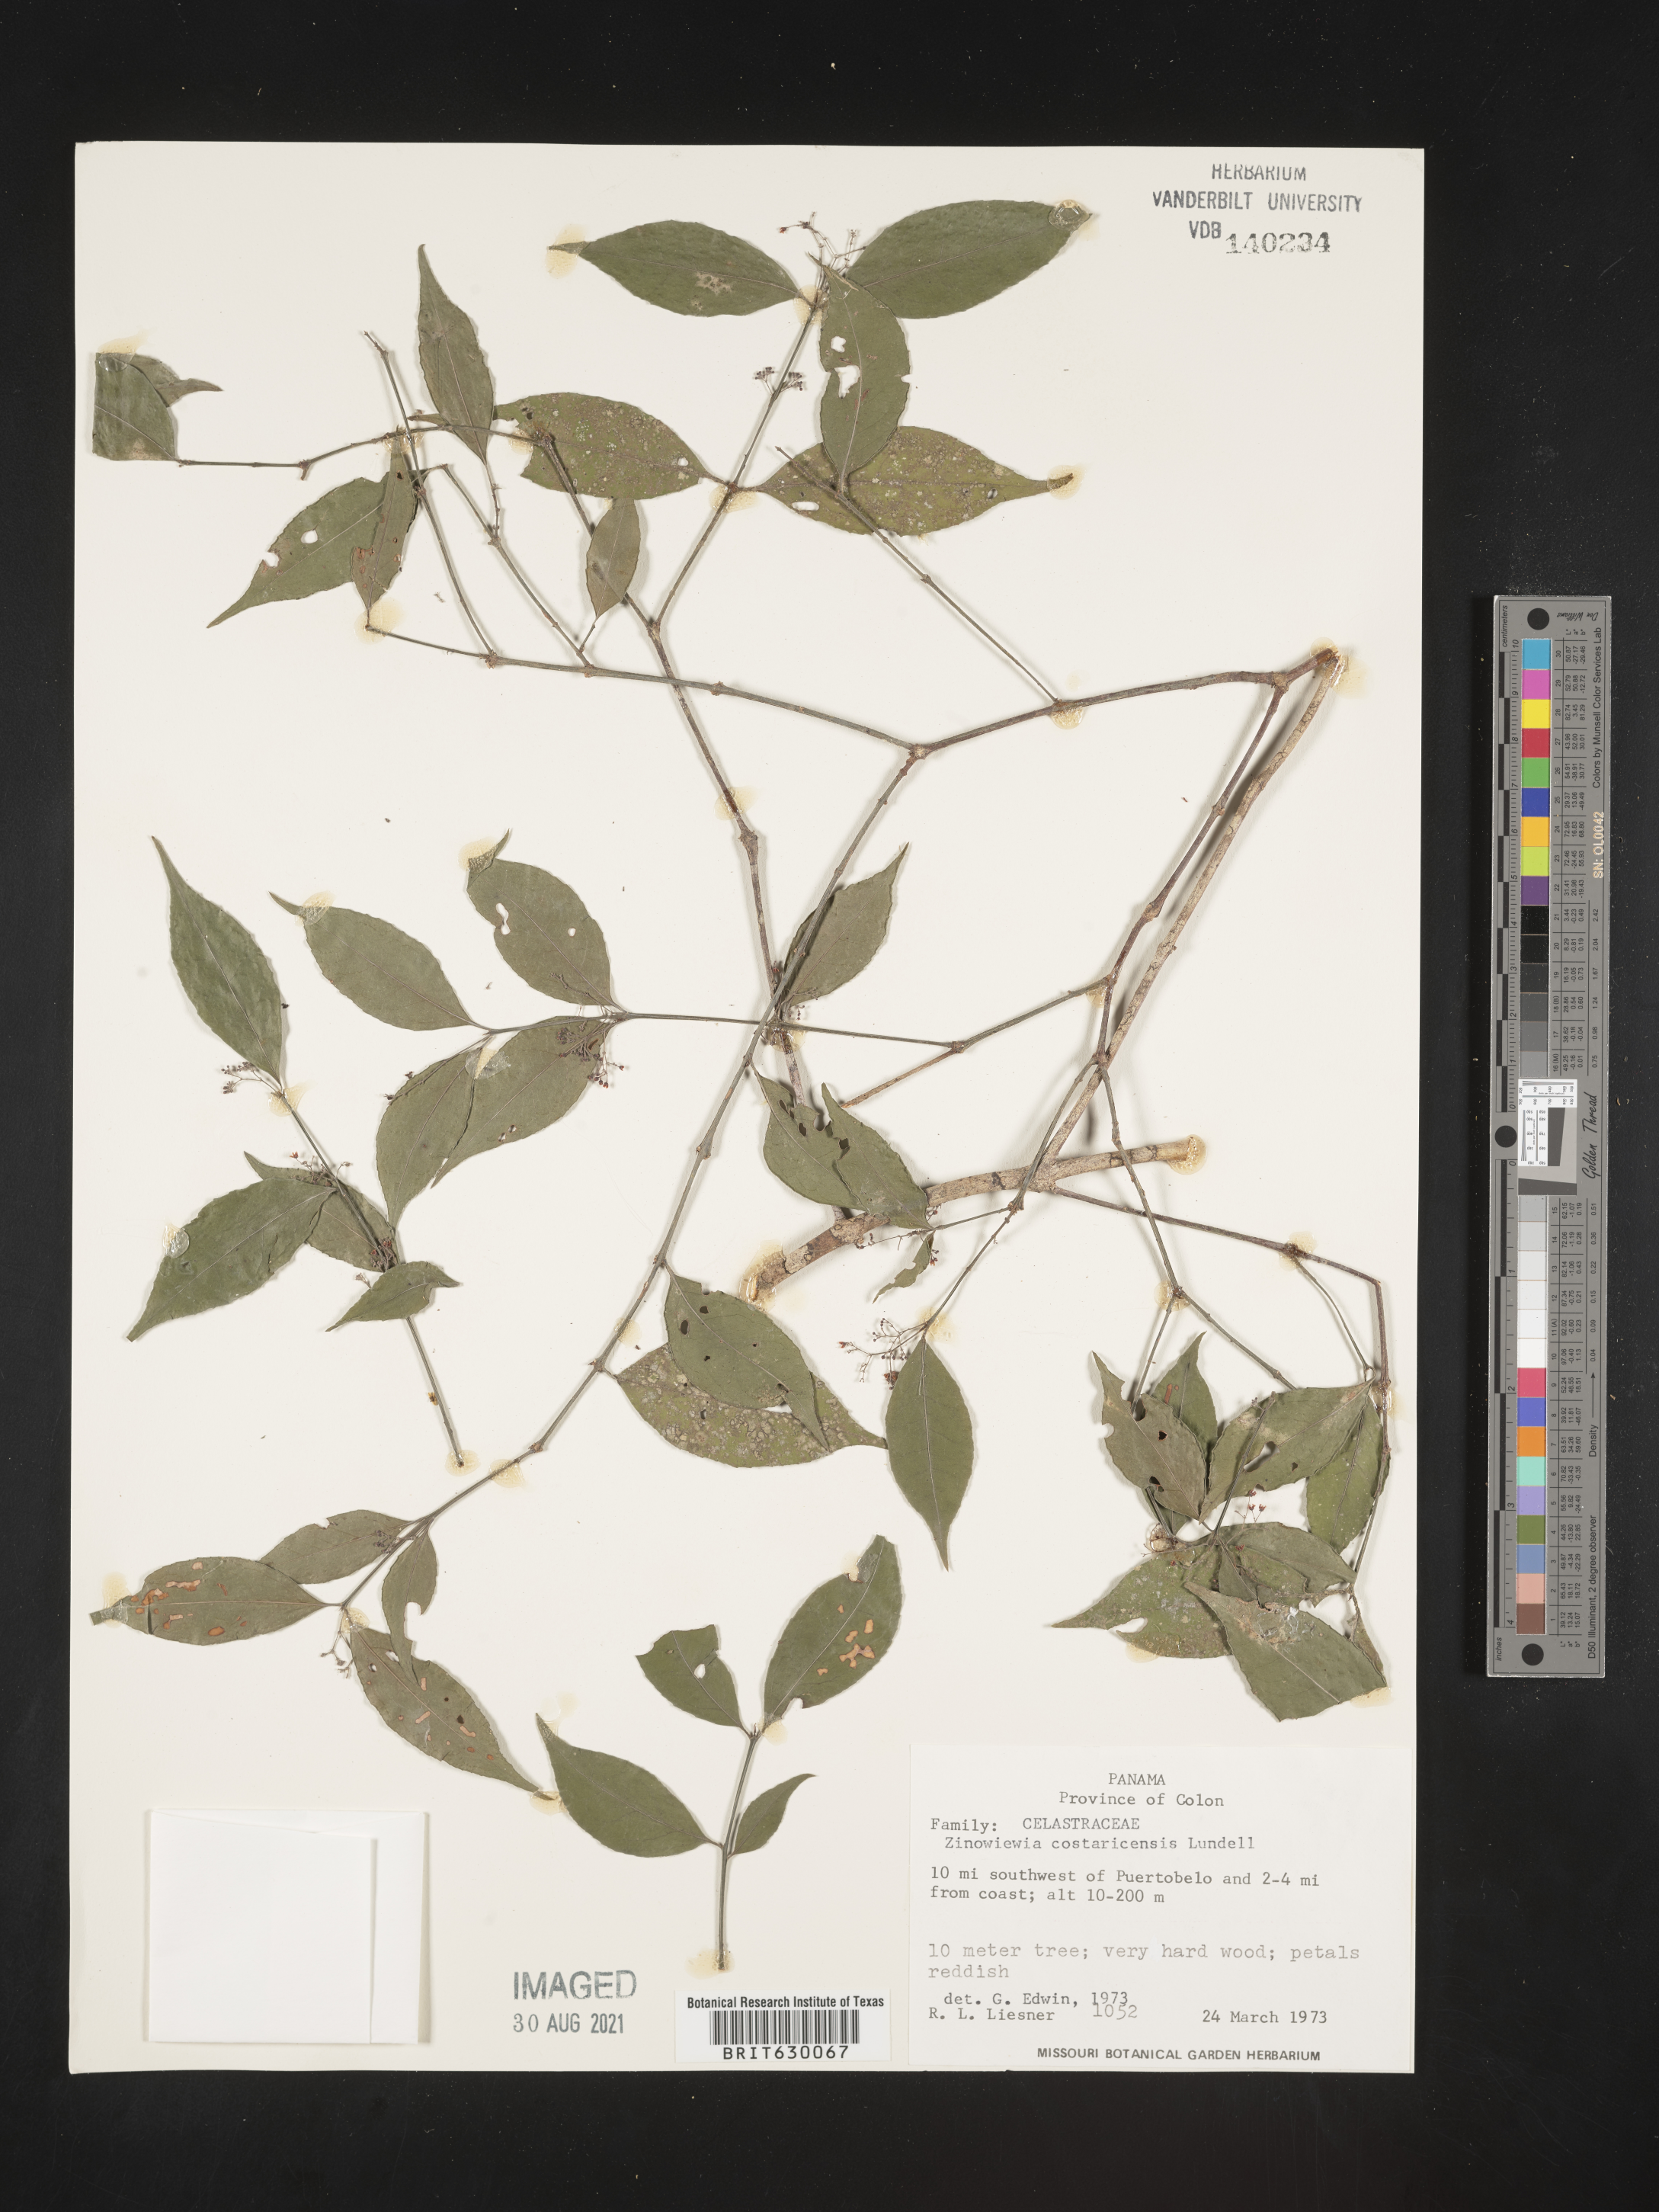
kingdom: Plantae
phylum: Tracheophyta
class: Magnoliopsida
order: Celastrales
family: Celastraceae
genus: Zinowiewia
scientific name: Zinowiewia integerrima
